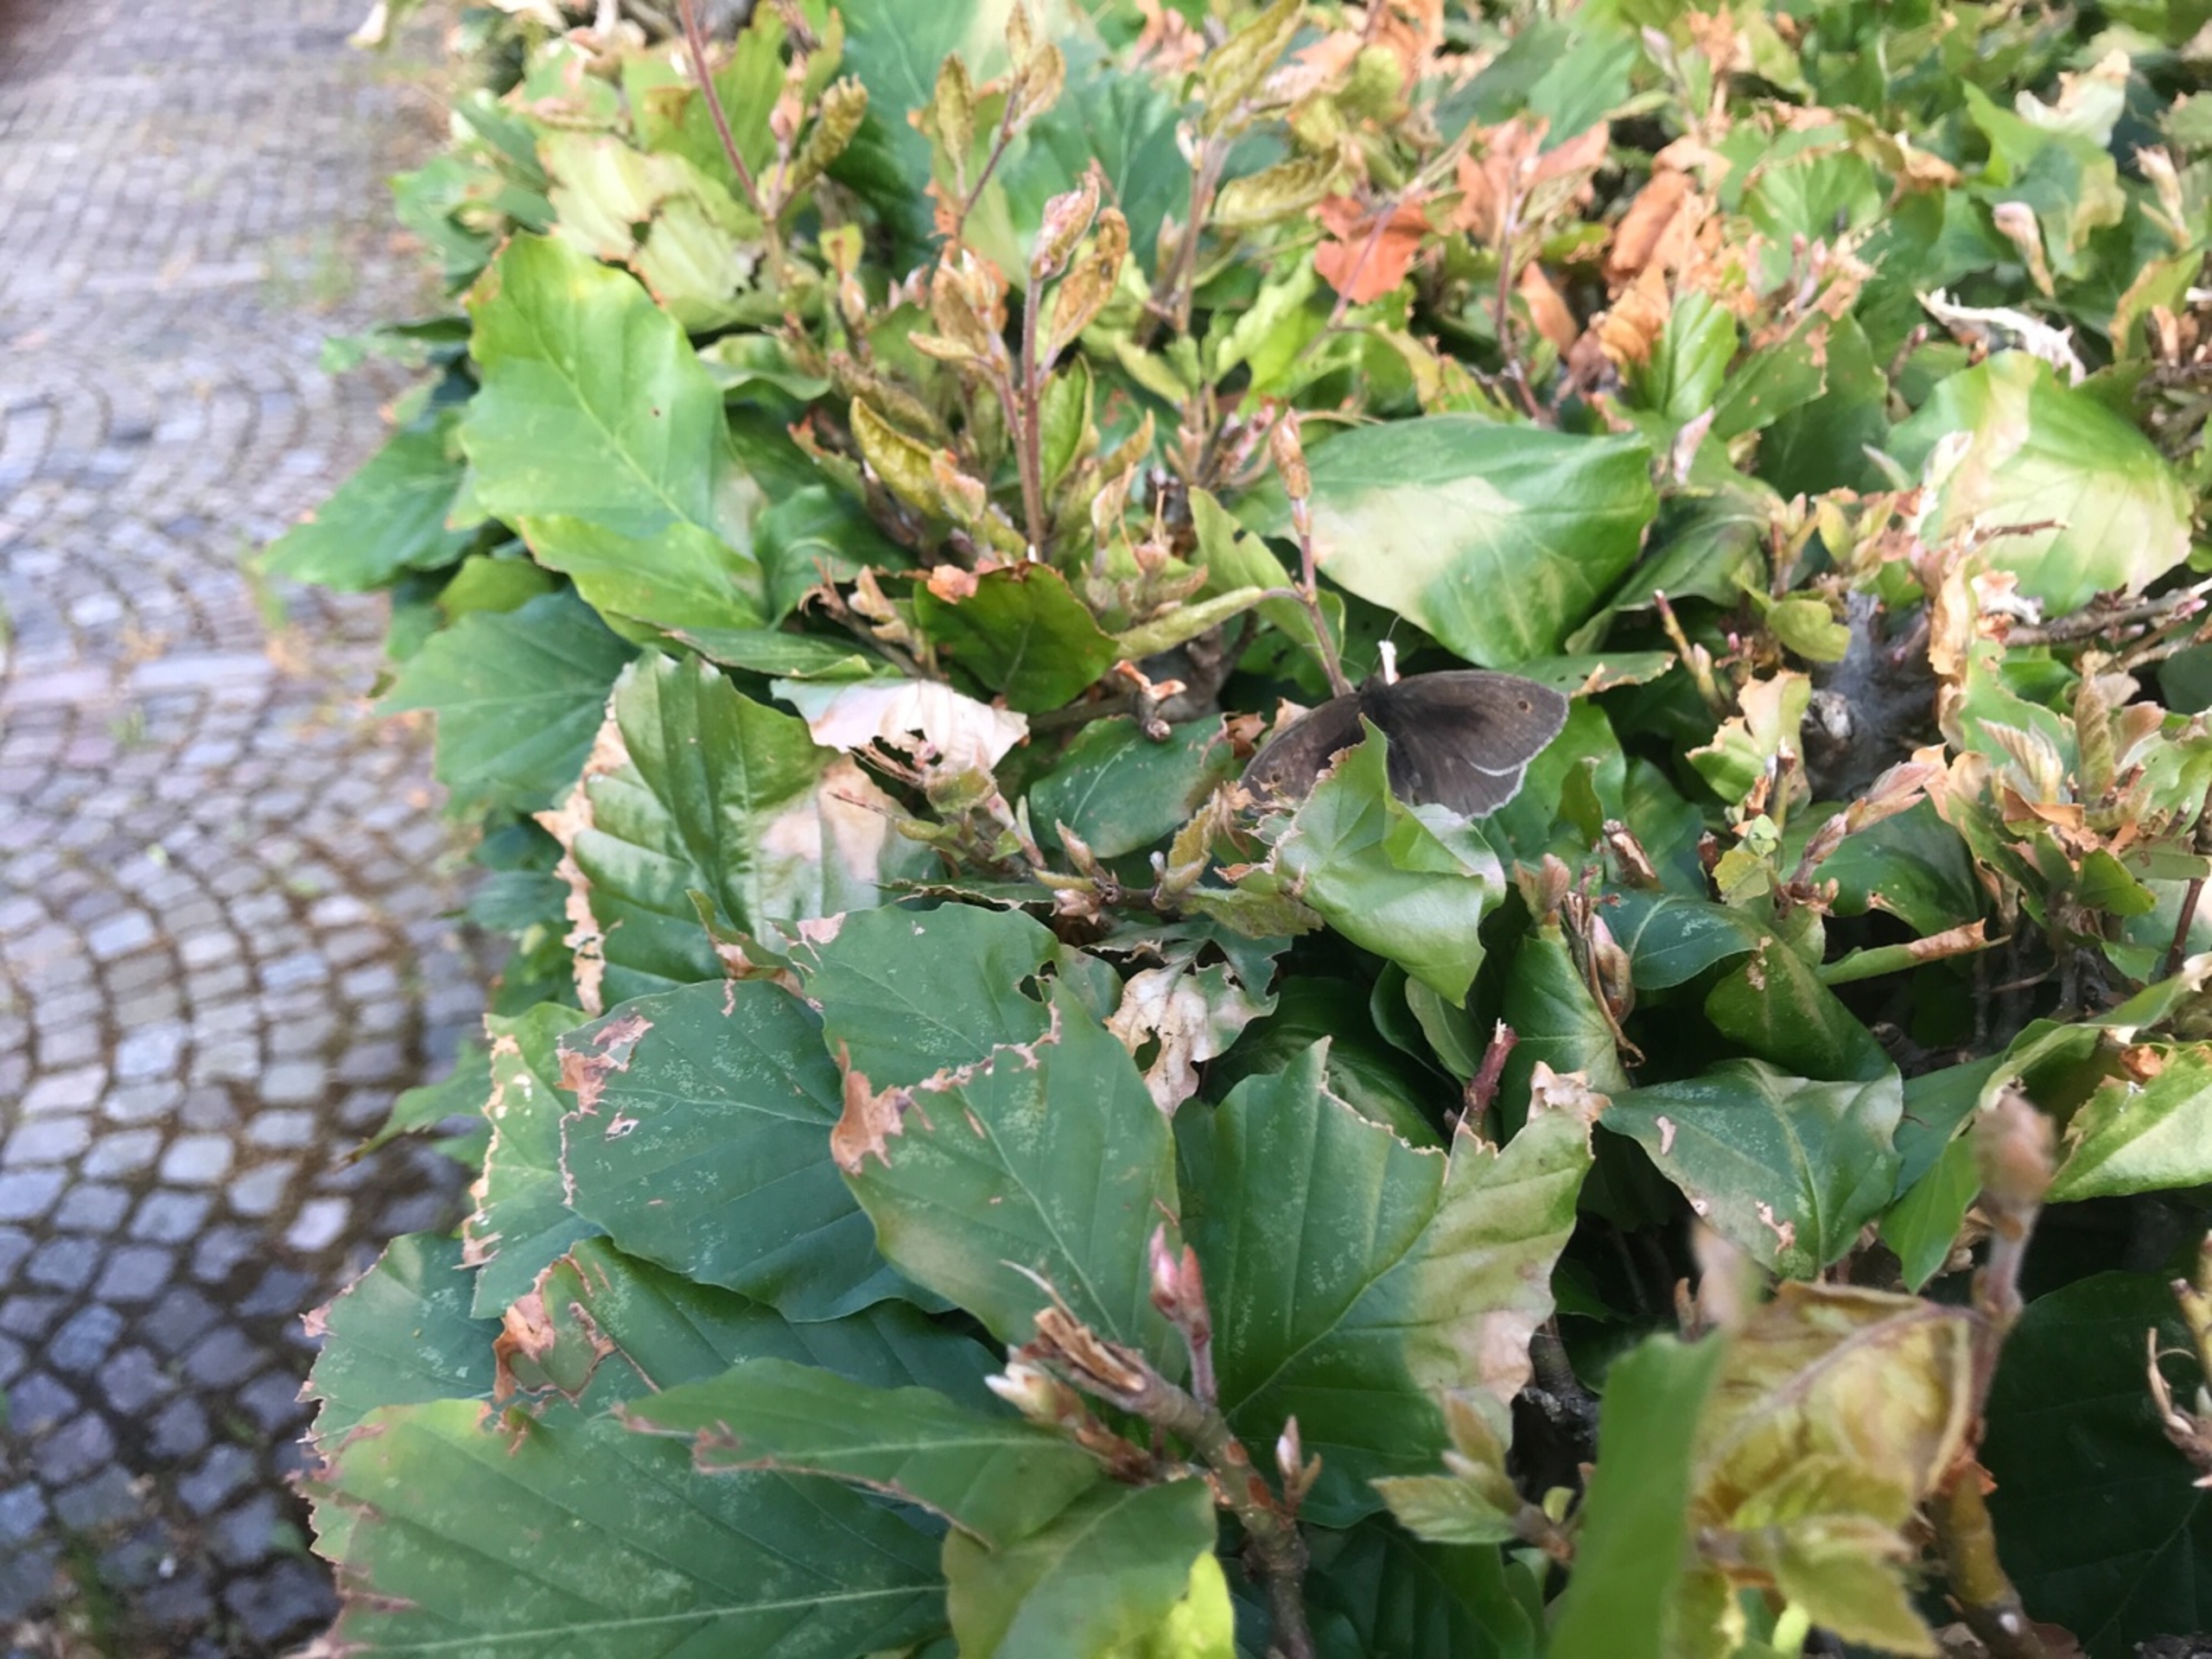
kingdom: Animalia
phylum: Arthropoda
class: Insecta
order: Lepidoptera
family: Nymphalidae
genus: Maniola
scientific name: Maniola jurtina
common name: Græsrandøje
